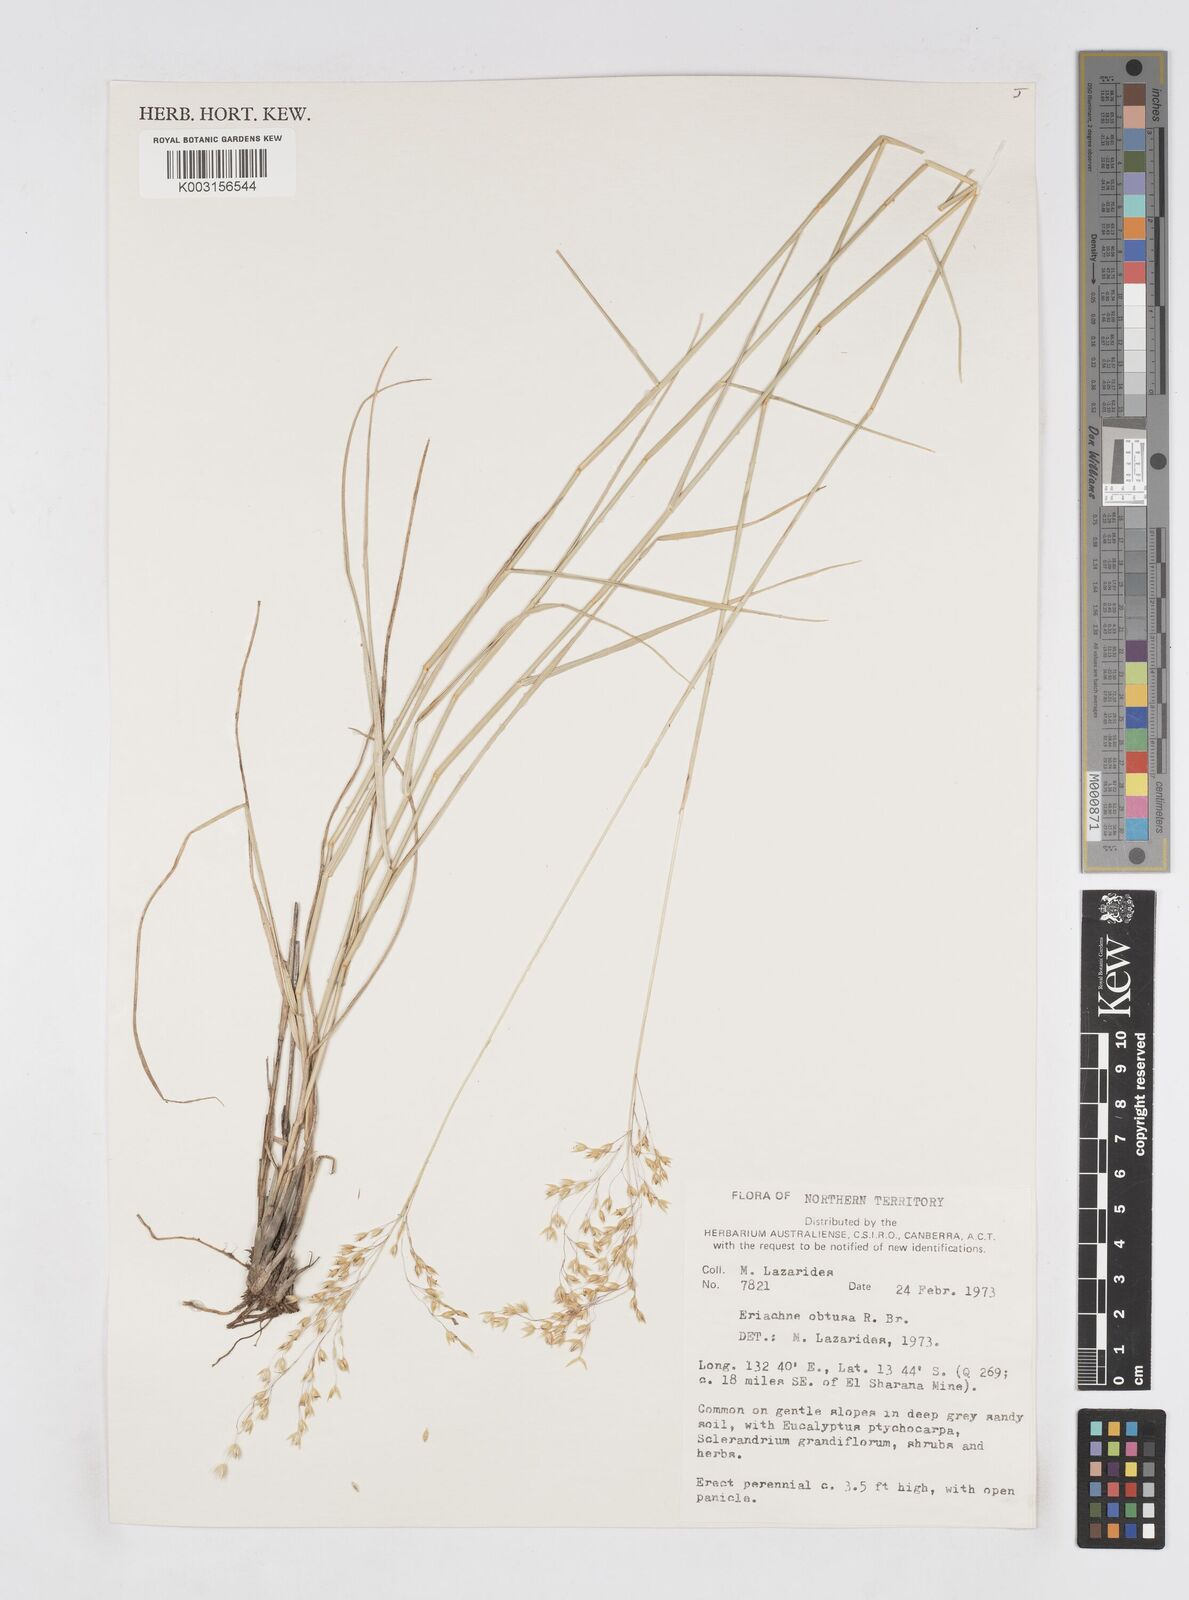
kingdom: Plantae
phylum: Tracheophyta
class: Liliopsida
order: Poales
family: Poaceae
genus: Eriachne
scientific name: Eriachne obtusa
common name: Northern wanderrie grass
